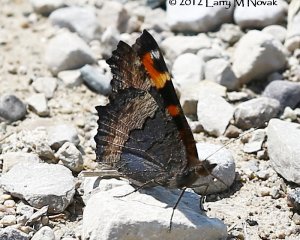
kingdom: Animalia
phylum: Arthropoda
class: Insecta
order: Lepidoptera
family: Nymphalidae
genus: Aglais
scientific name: Aglais milberti
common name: Milbert's Tortoiseshell
